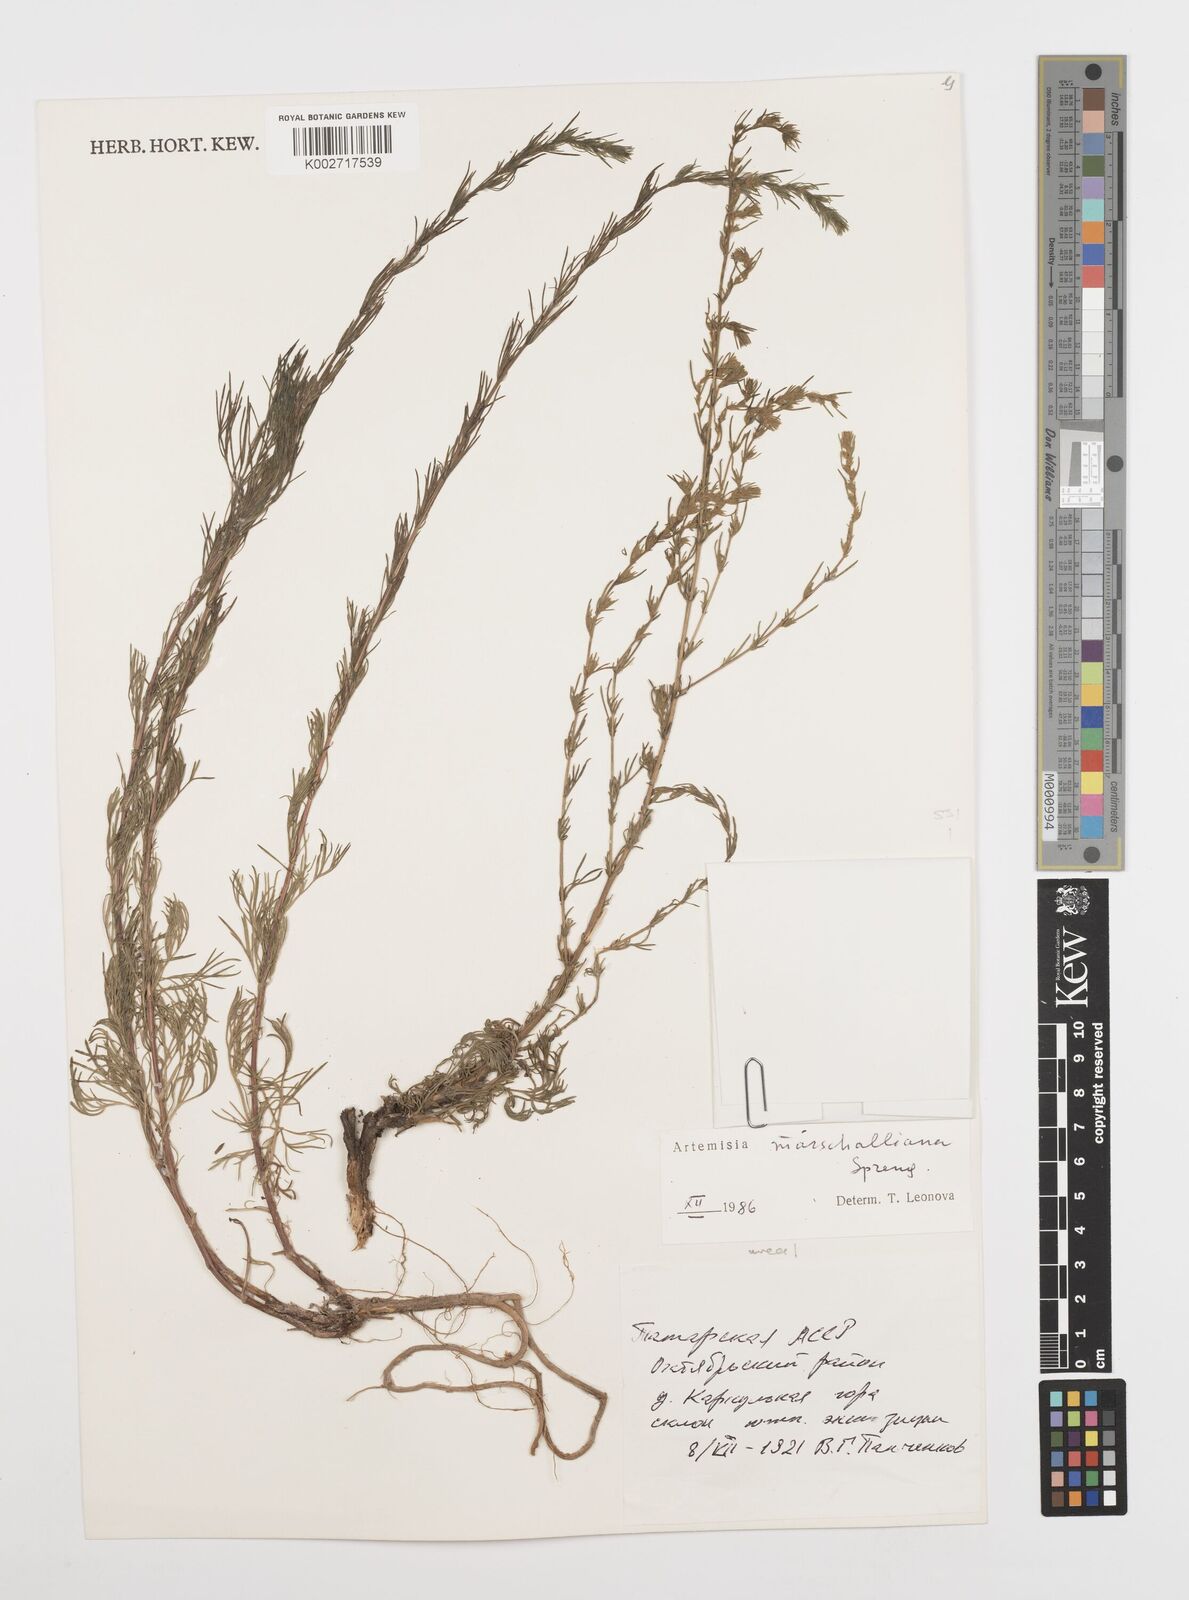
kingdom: Plantae
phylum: Tracheophyta
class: Magnoliopsida
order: Asterales
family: Asteraceae
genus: Artemisia
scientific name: Artemisia marschalliana
